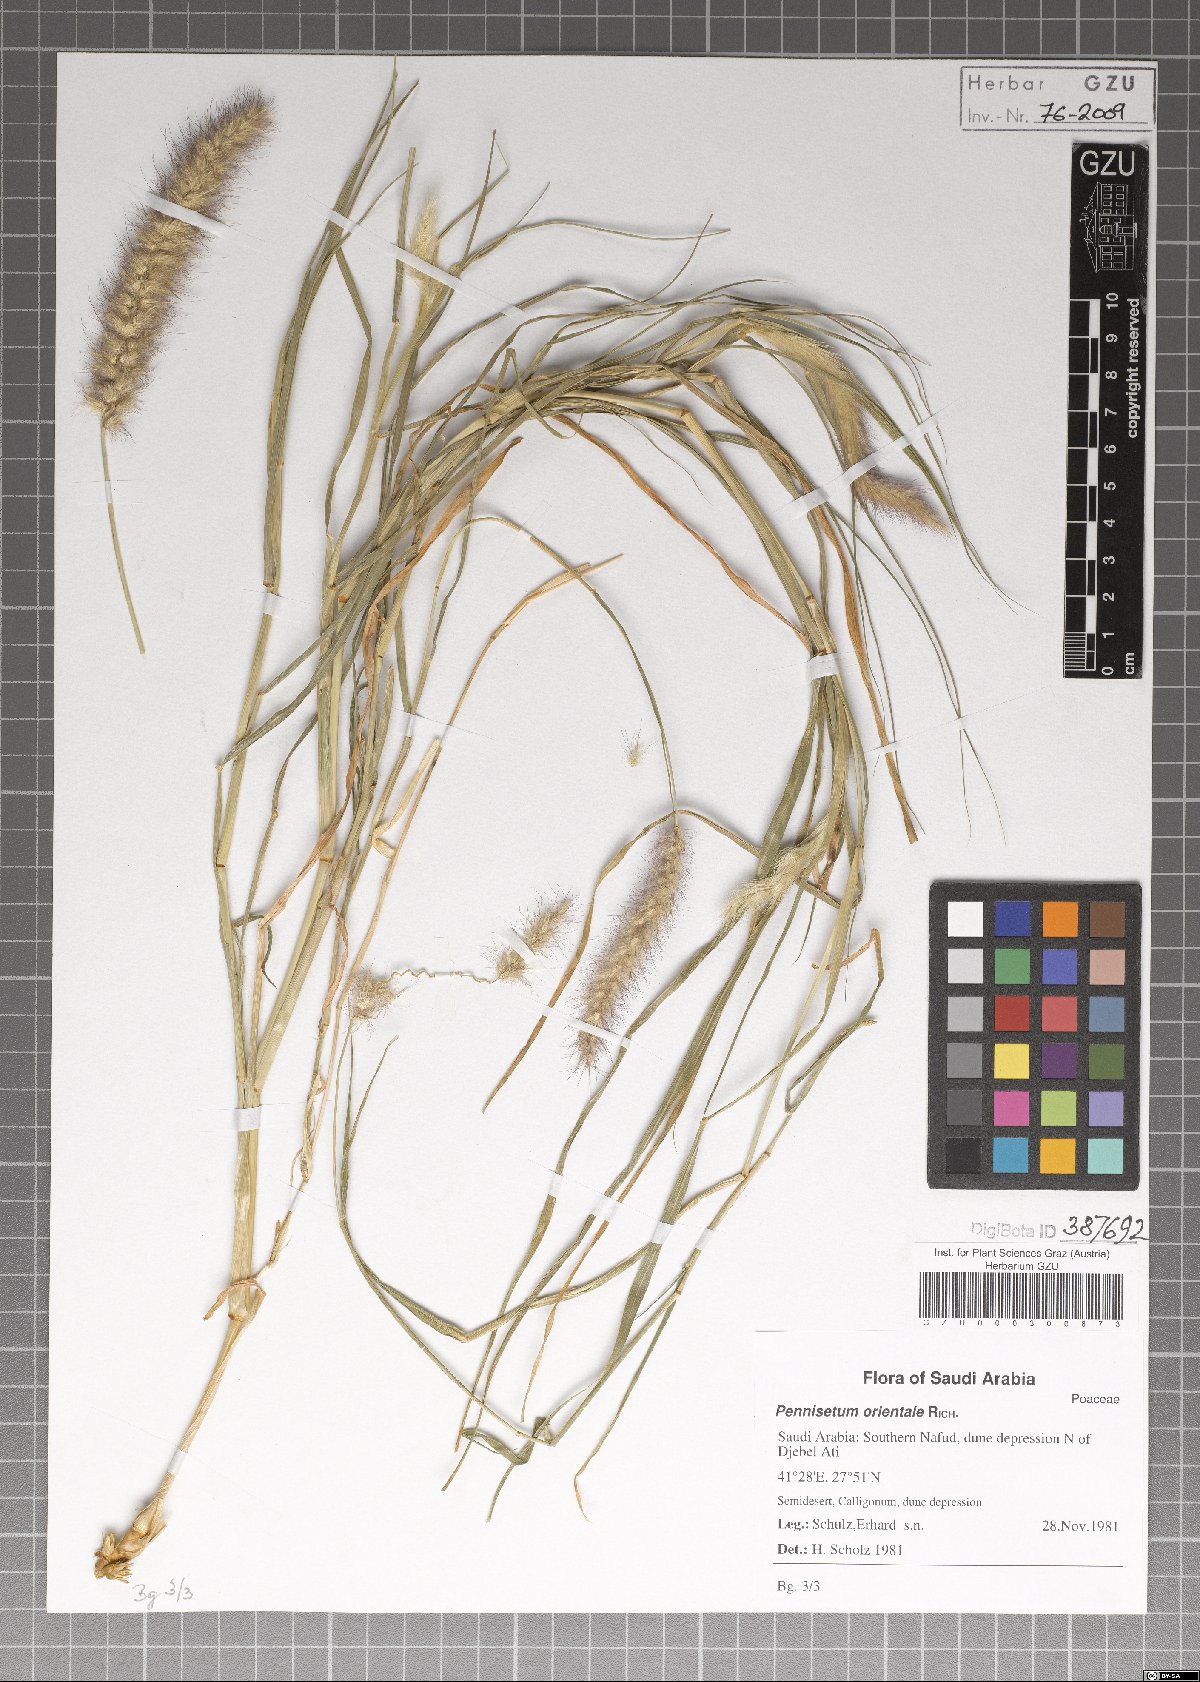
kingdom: Plantae
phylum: Tracheophyta
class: Liliopsida
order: Poales
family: Poaceae
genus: Cenchrus
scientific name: Cenchrus orientalis
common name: Oriental fountain grass
